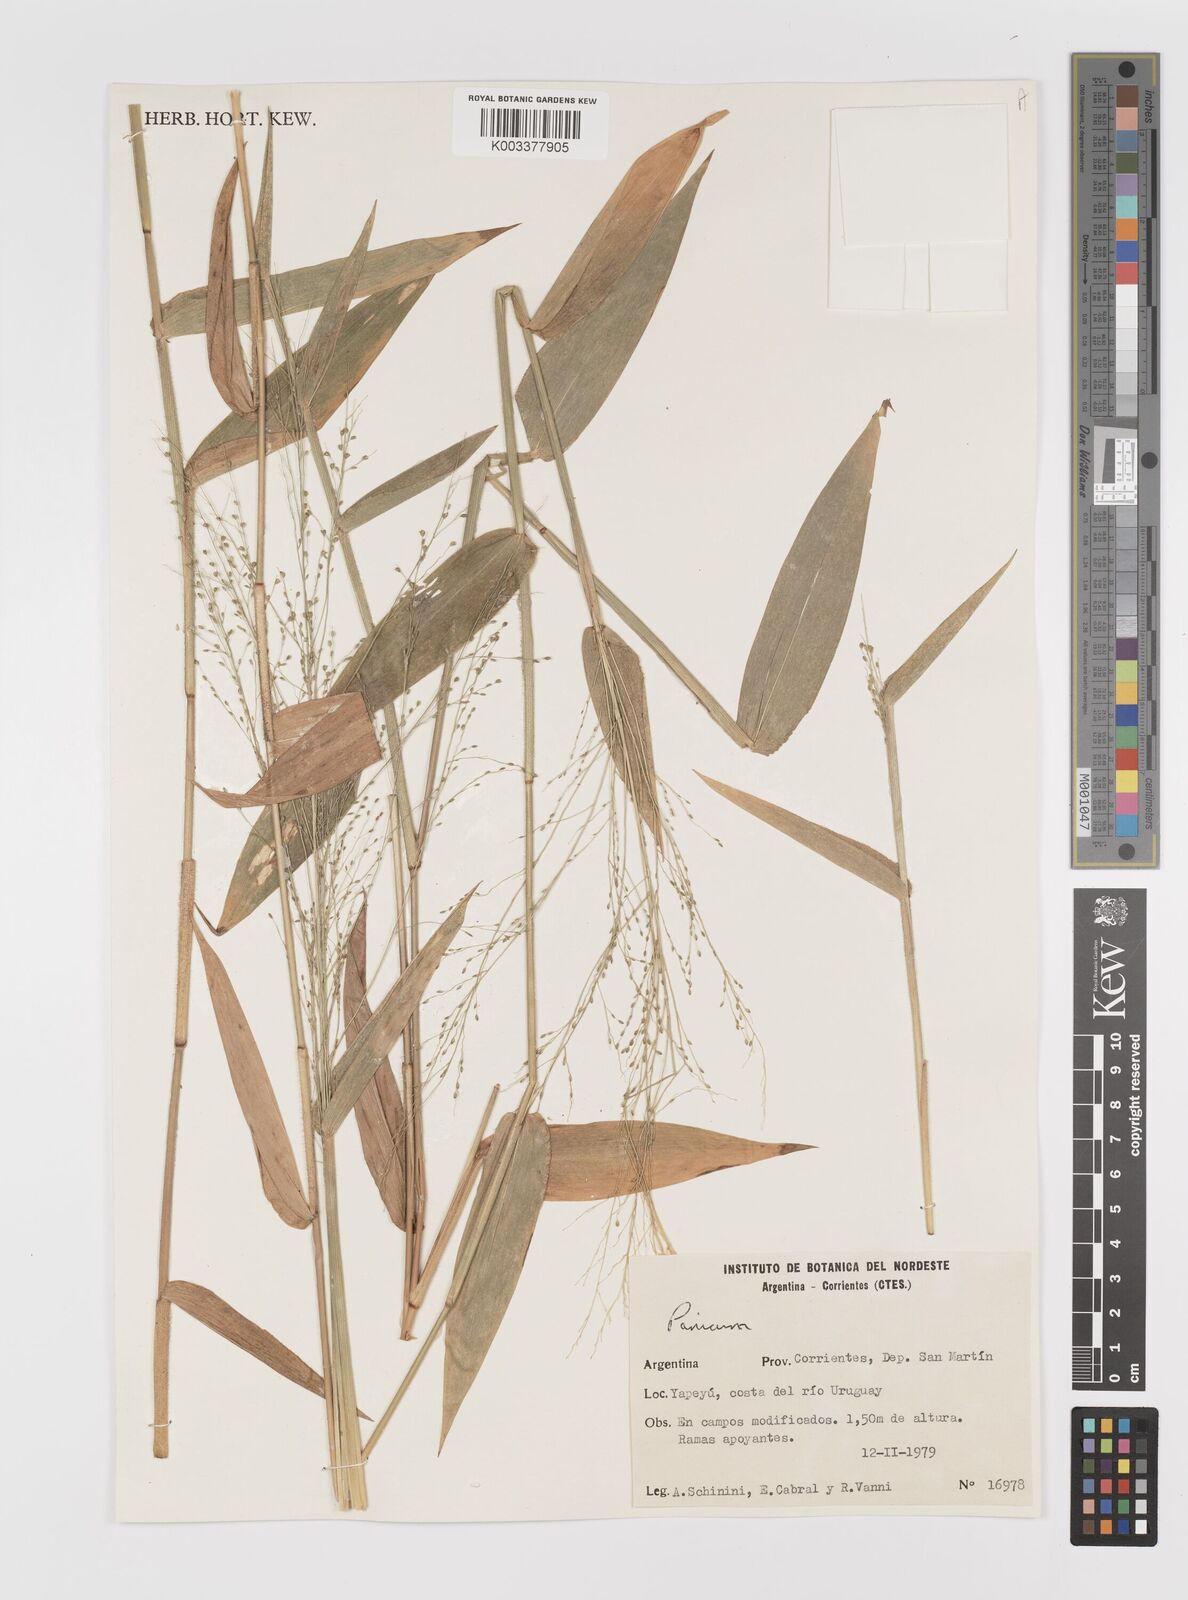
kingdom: Plantae
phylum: Tracheophyta
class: Liliopsida
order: Poales
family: Poaceae
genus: Panicum
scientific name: Panicum
